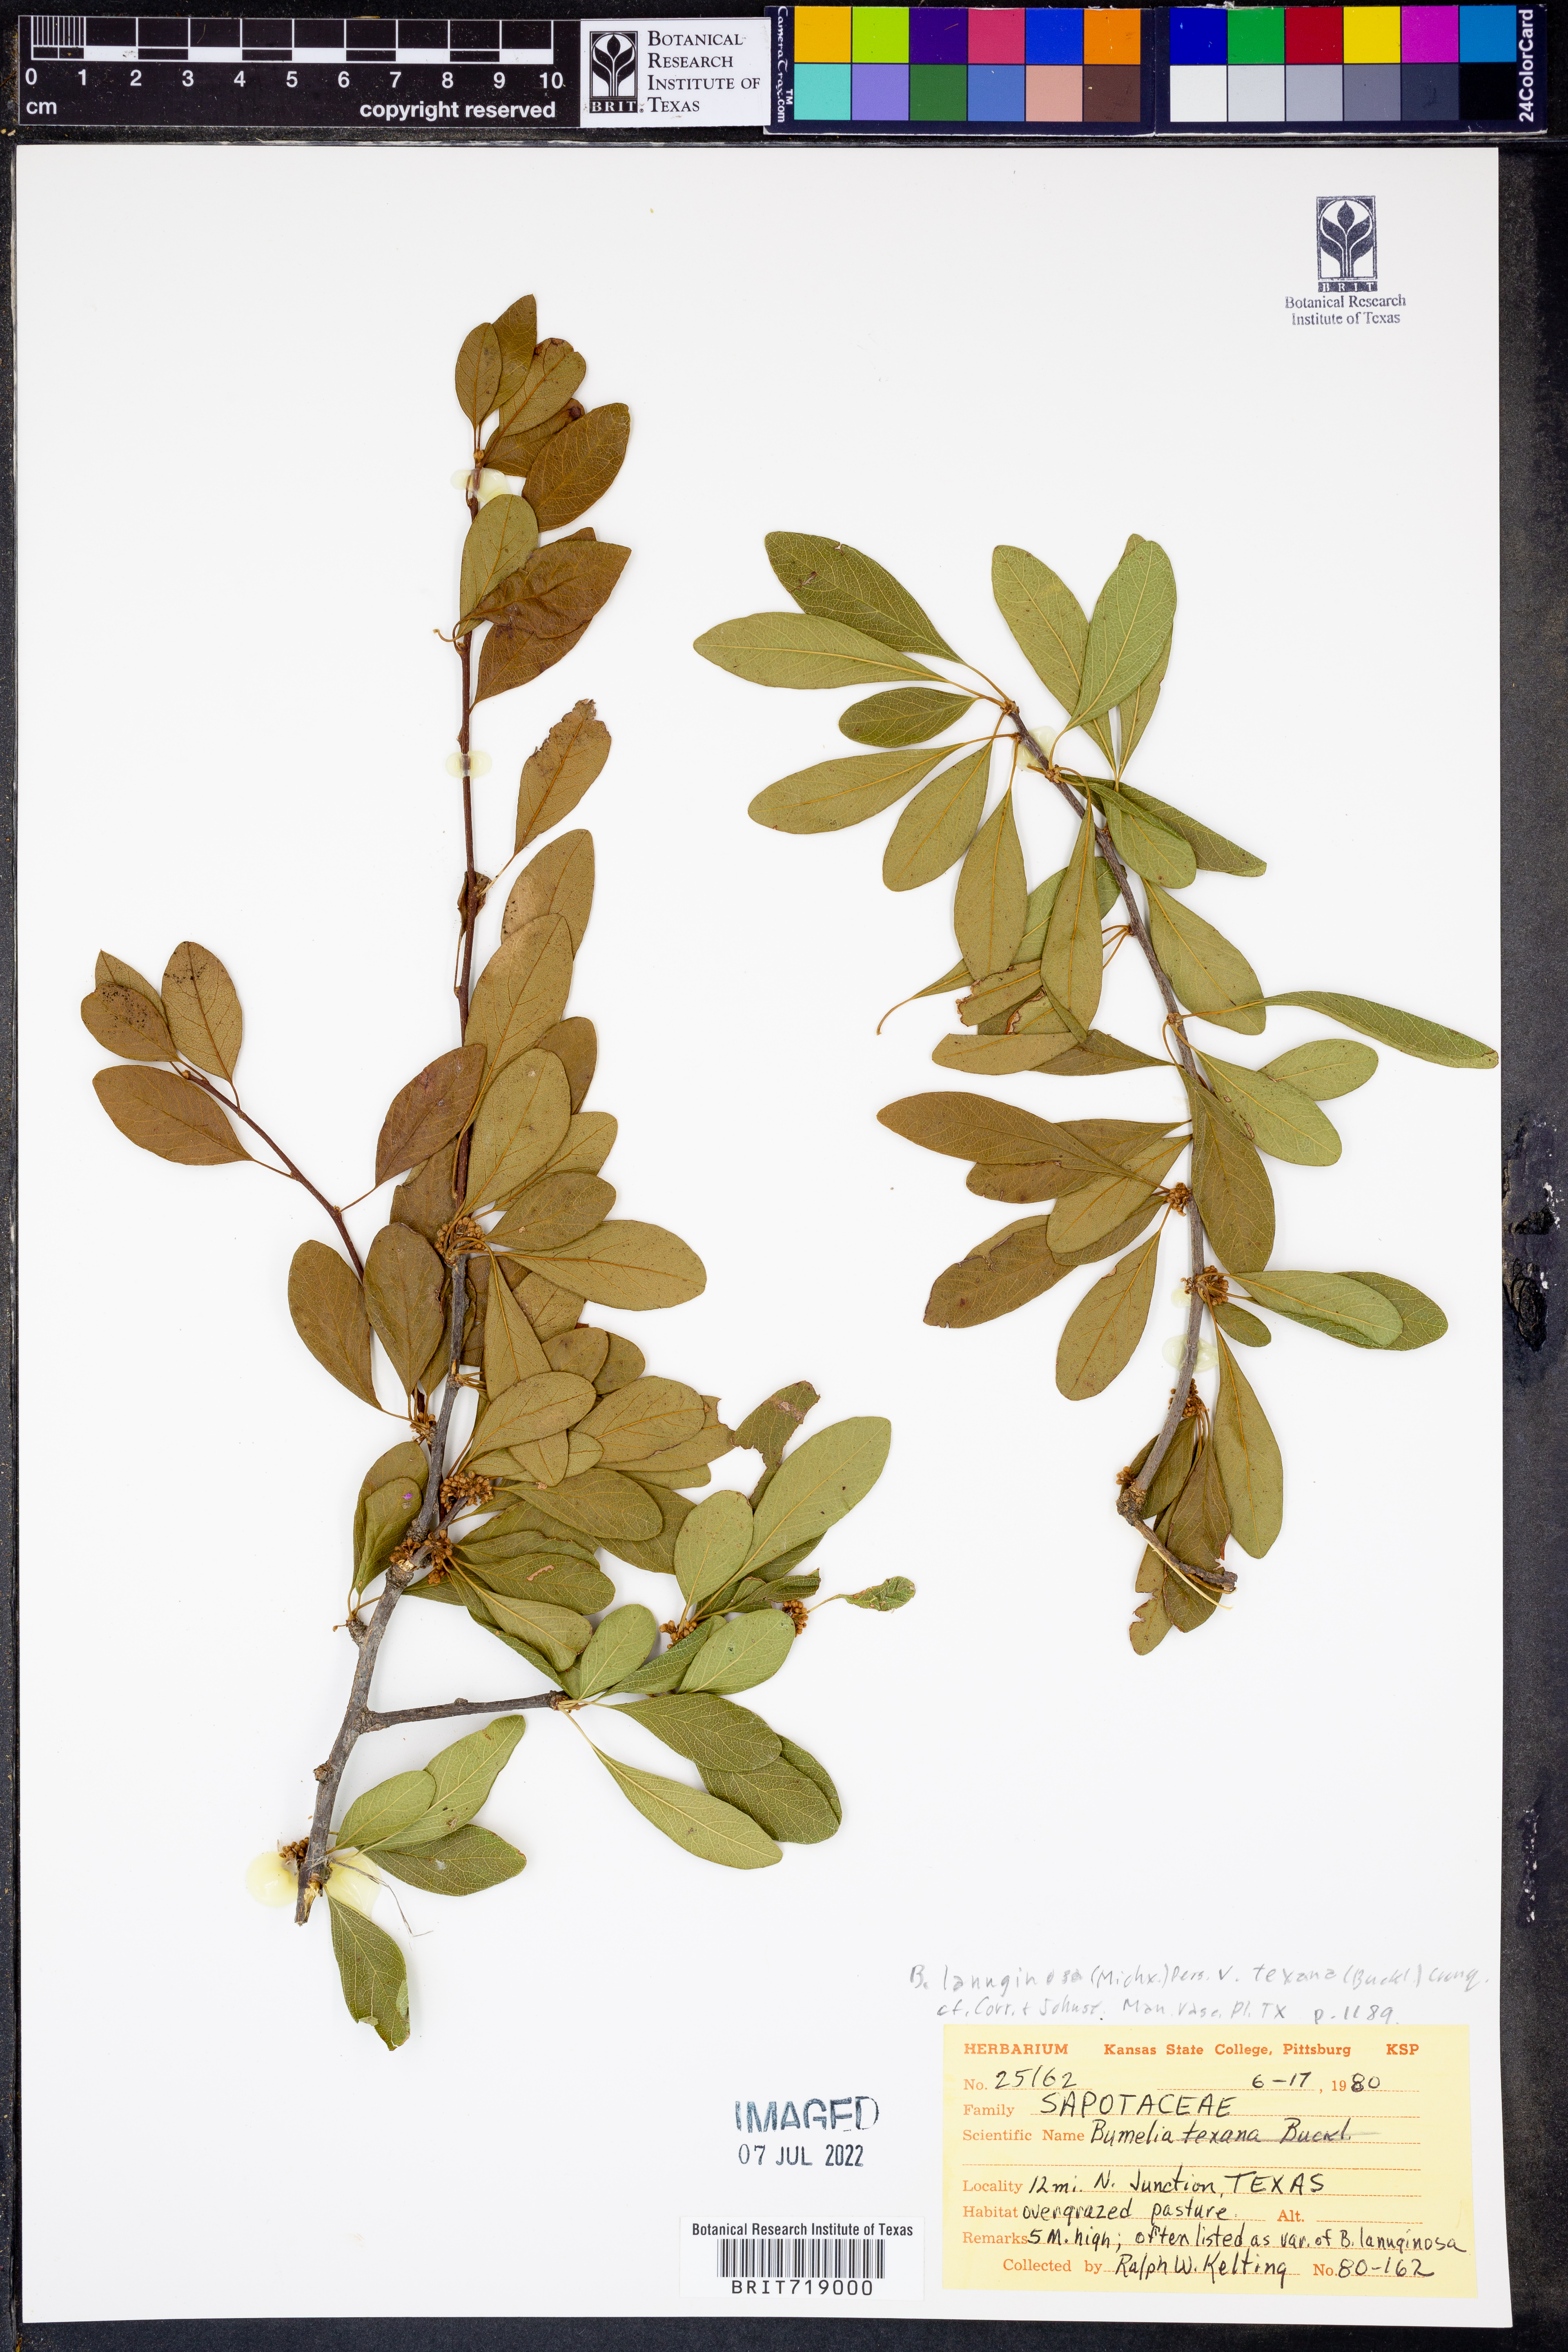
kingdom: Plantae
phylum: Tracheophyta
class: Magnoliopsida
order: Ericales
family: Sapotaceae
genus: Sideroxylon
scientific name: Sideroxylon lanuginosum
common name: Chittamwood
